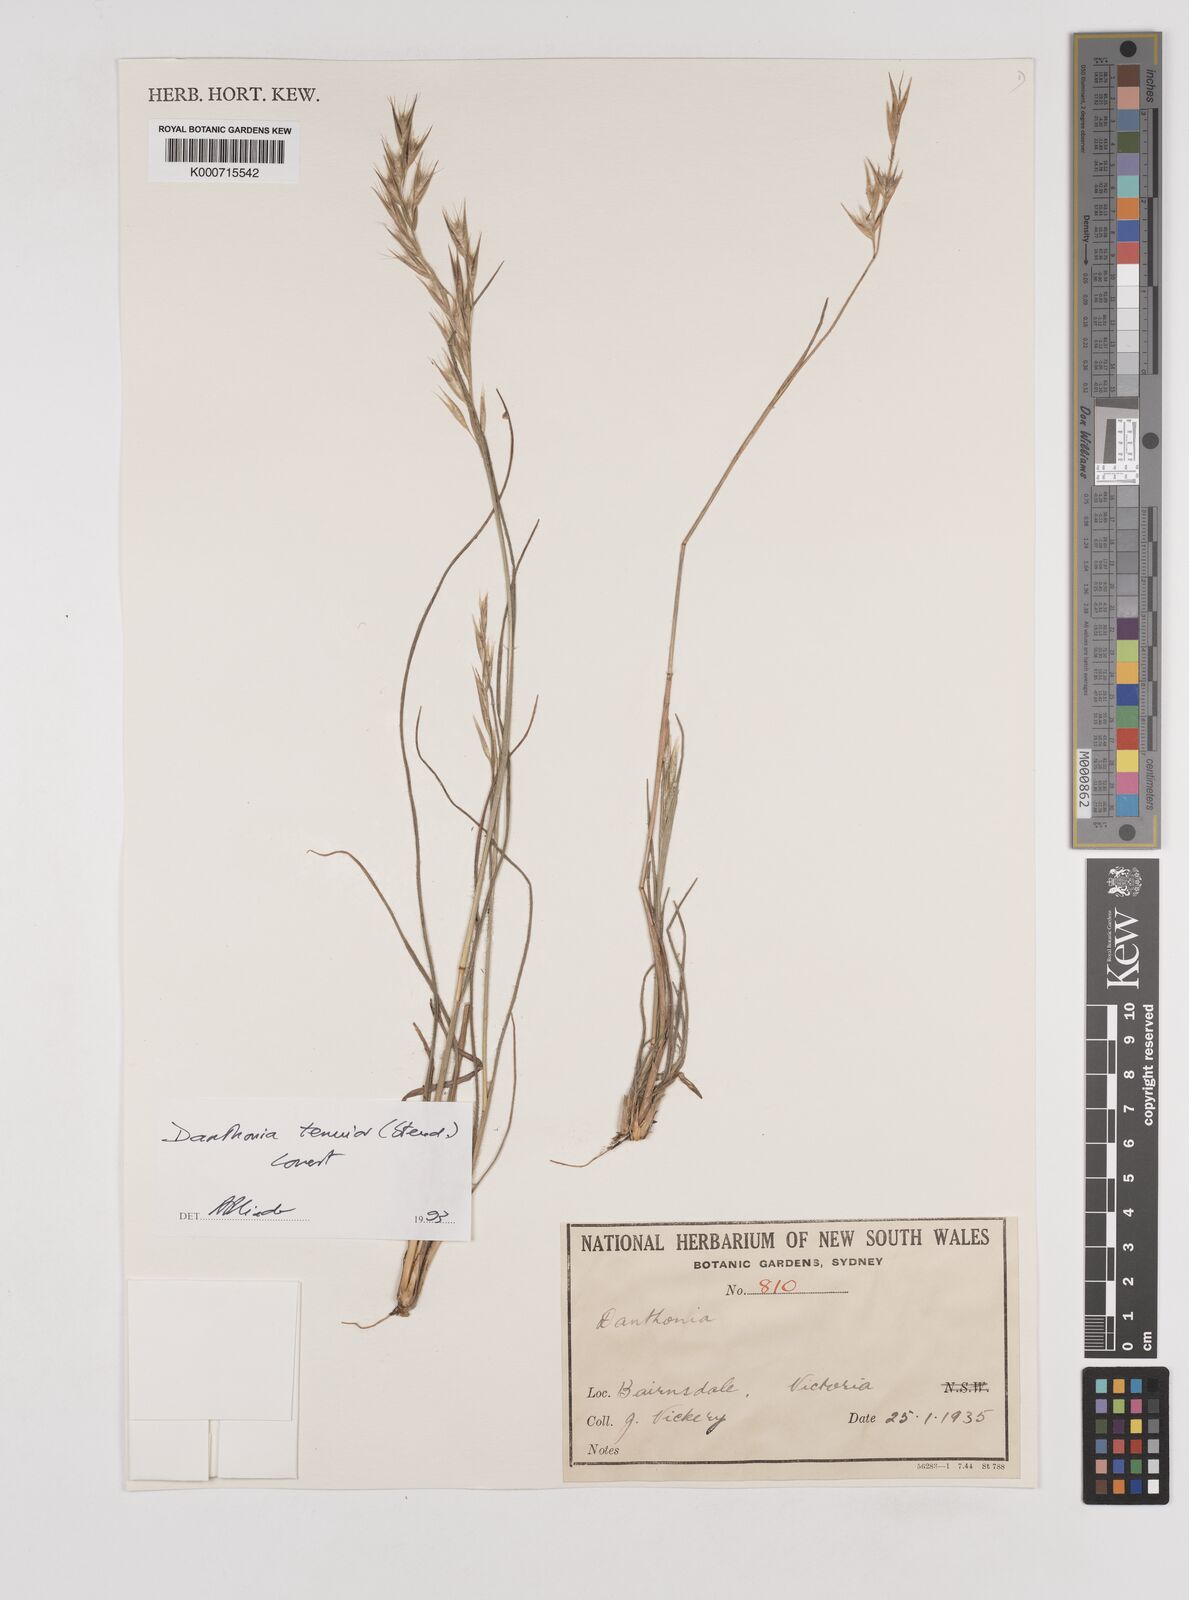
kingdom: Plantae
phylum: Tracheophyta
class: Liliopsida
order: Poales
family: Poaceae
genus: Rytidosperma
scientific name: Rytidosperma tenuius
